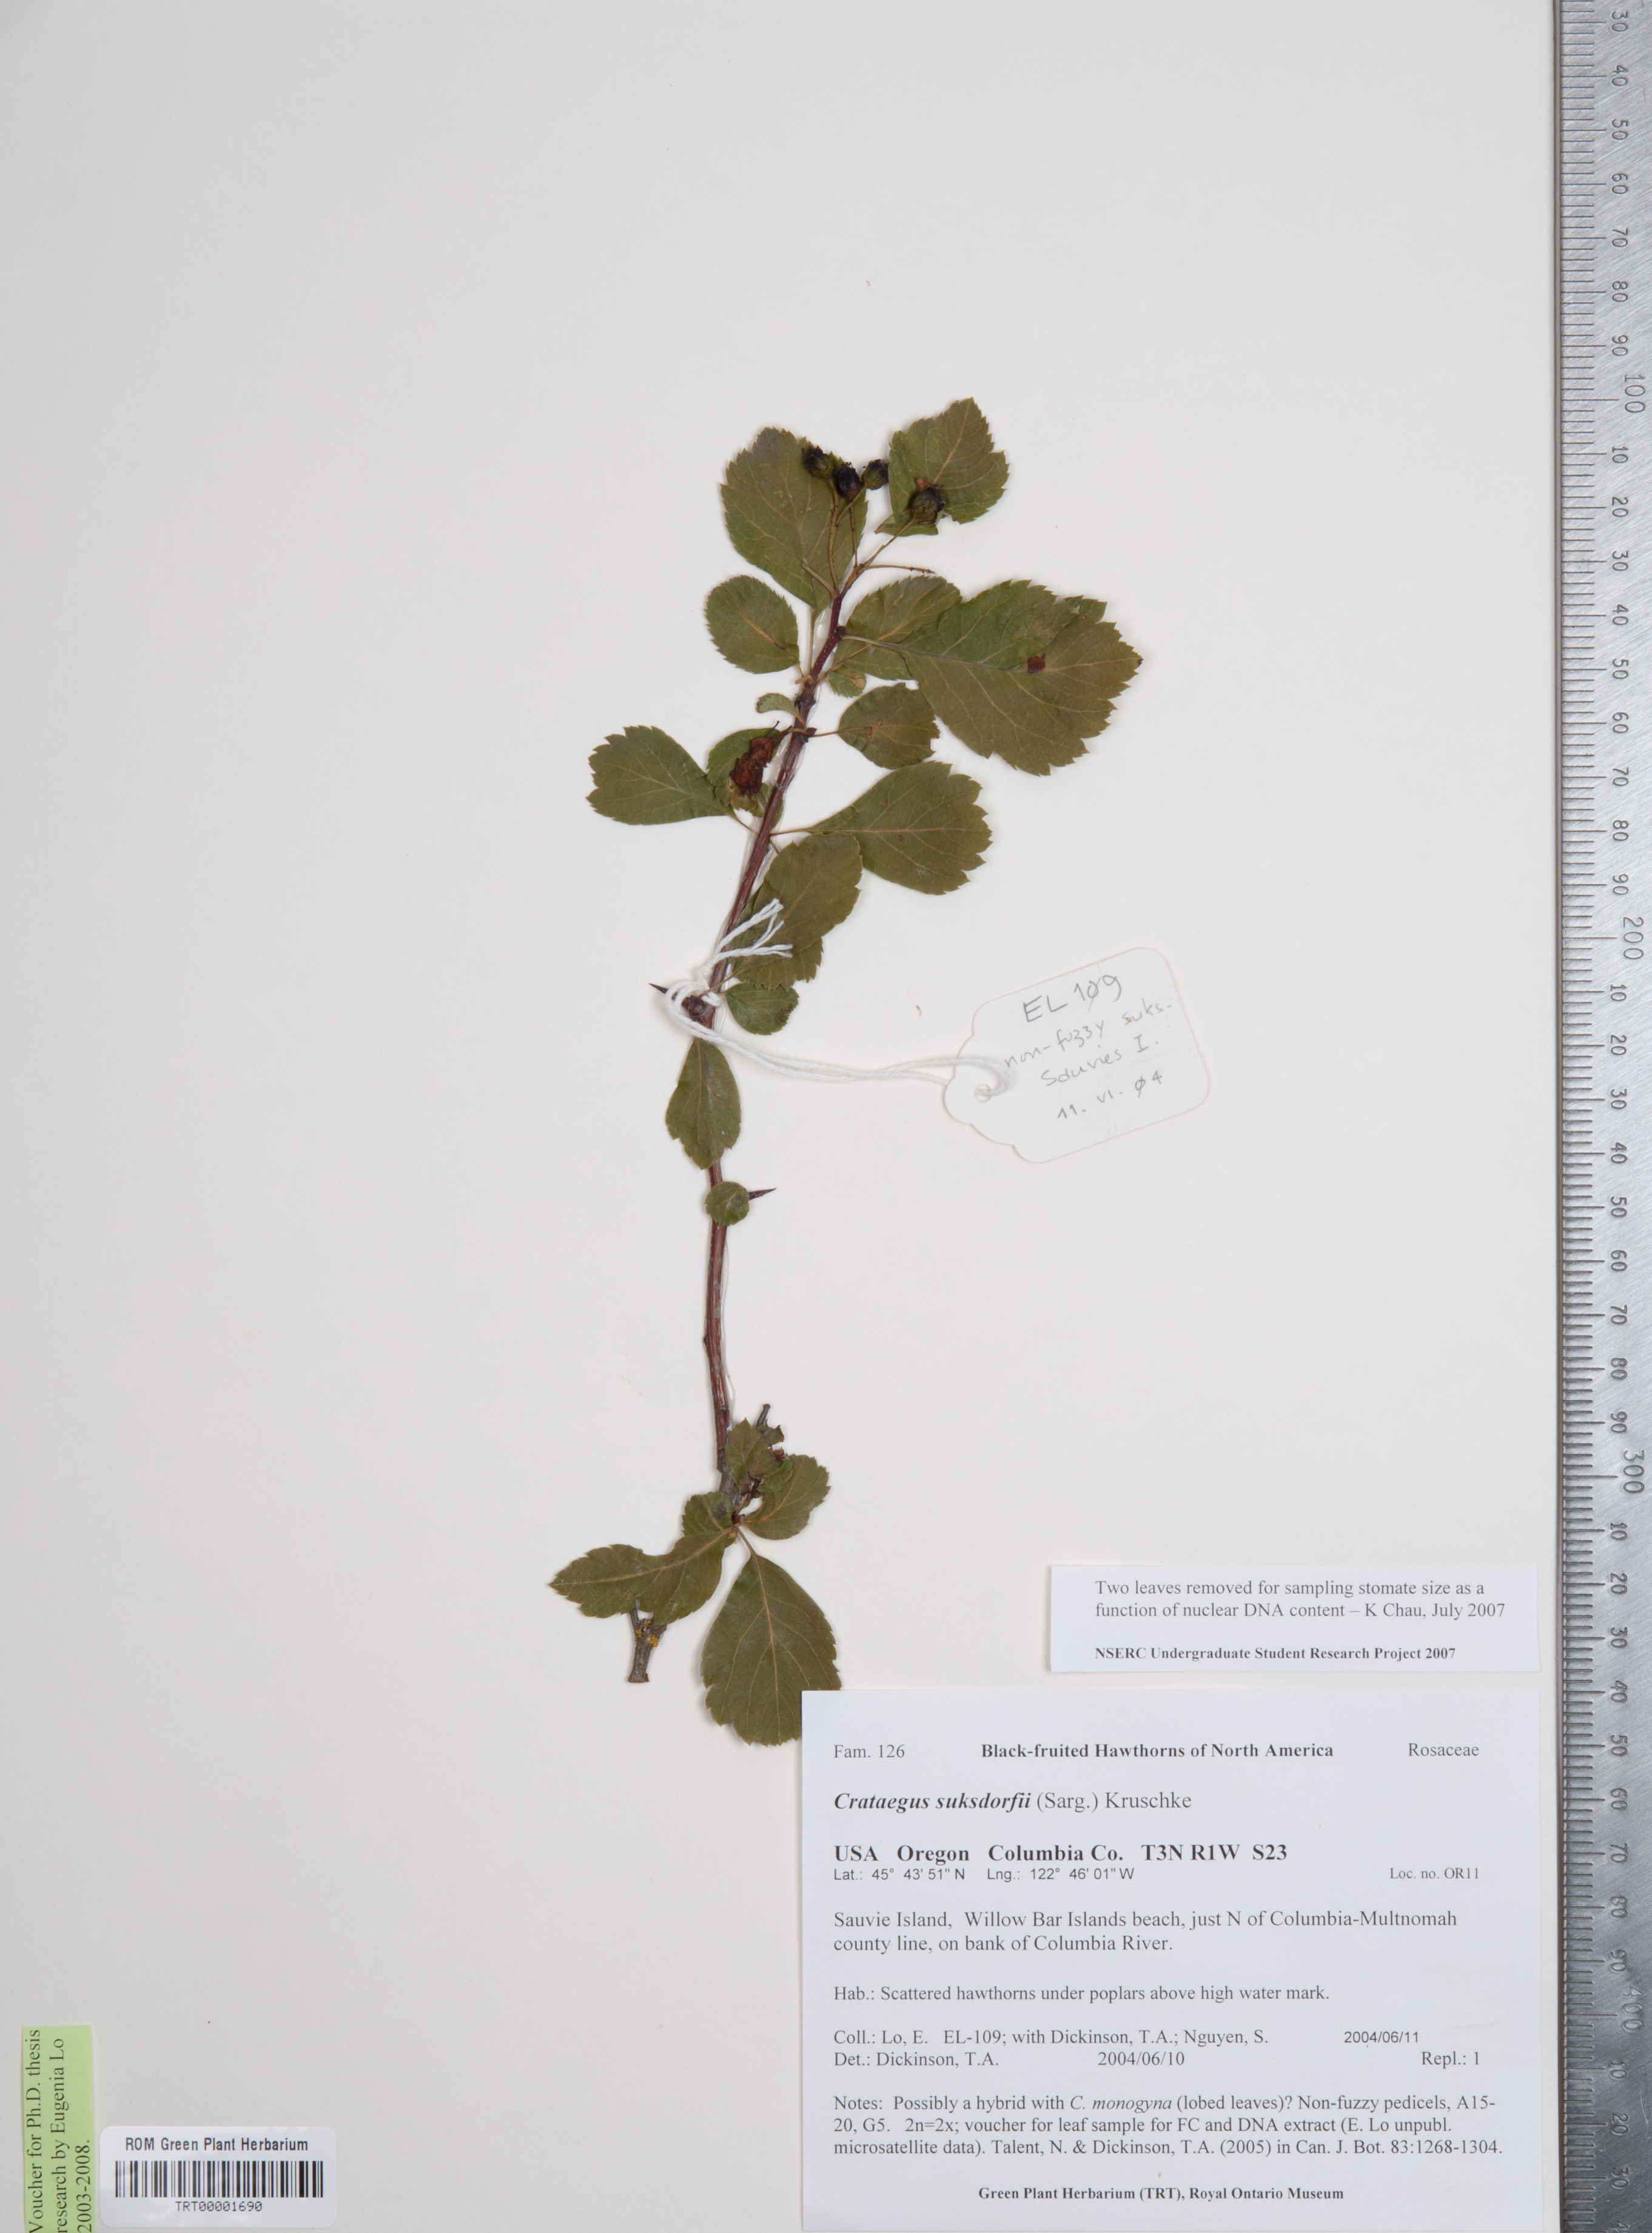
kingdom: Plantae
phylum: Tracheophyta
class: Magnoliopsida
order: Rosales
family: Rosaceae
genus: Crataegus
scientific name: Crataegus gaylussacia
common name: Huckleberry hawthorn
